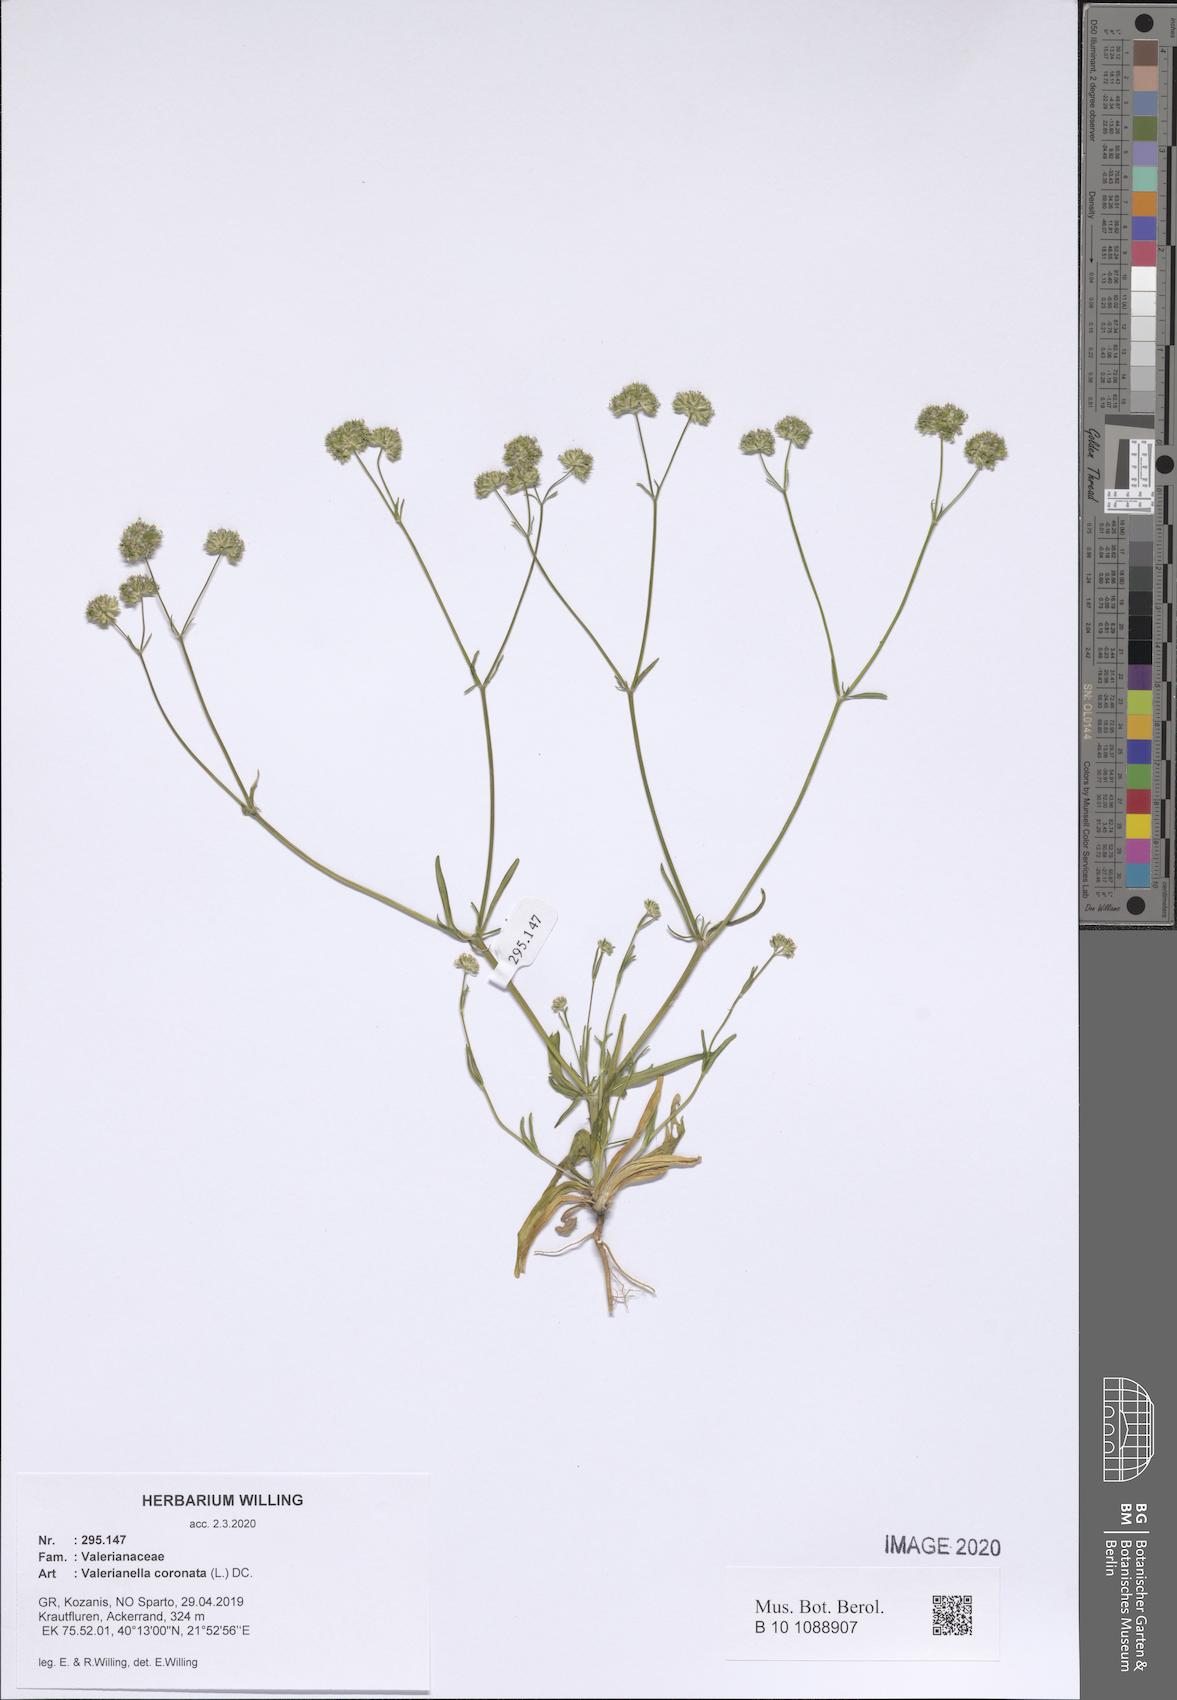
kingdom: Plantae
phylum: Tracheophyta
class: Magnoliopsida
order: Dipsacales
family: Caprifoliaceae
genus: Valerianella
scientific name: Valerianella coronata
